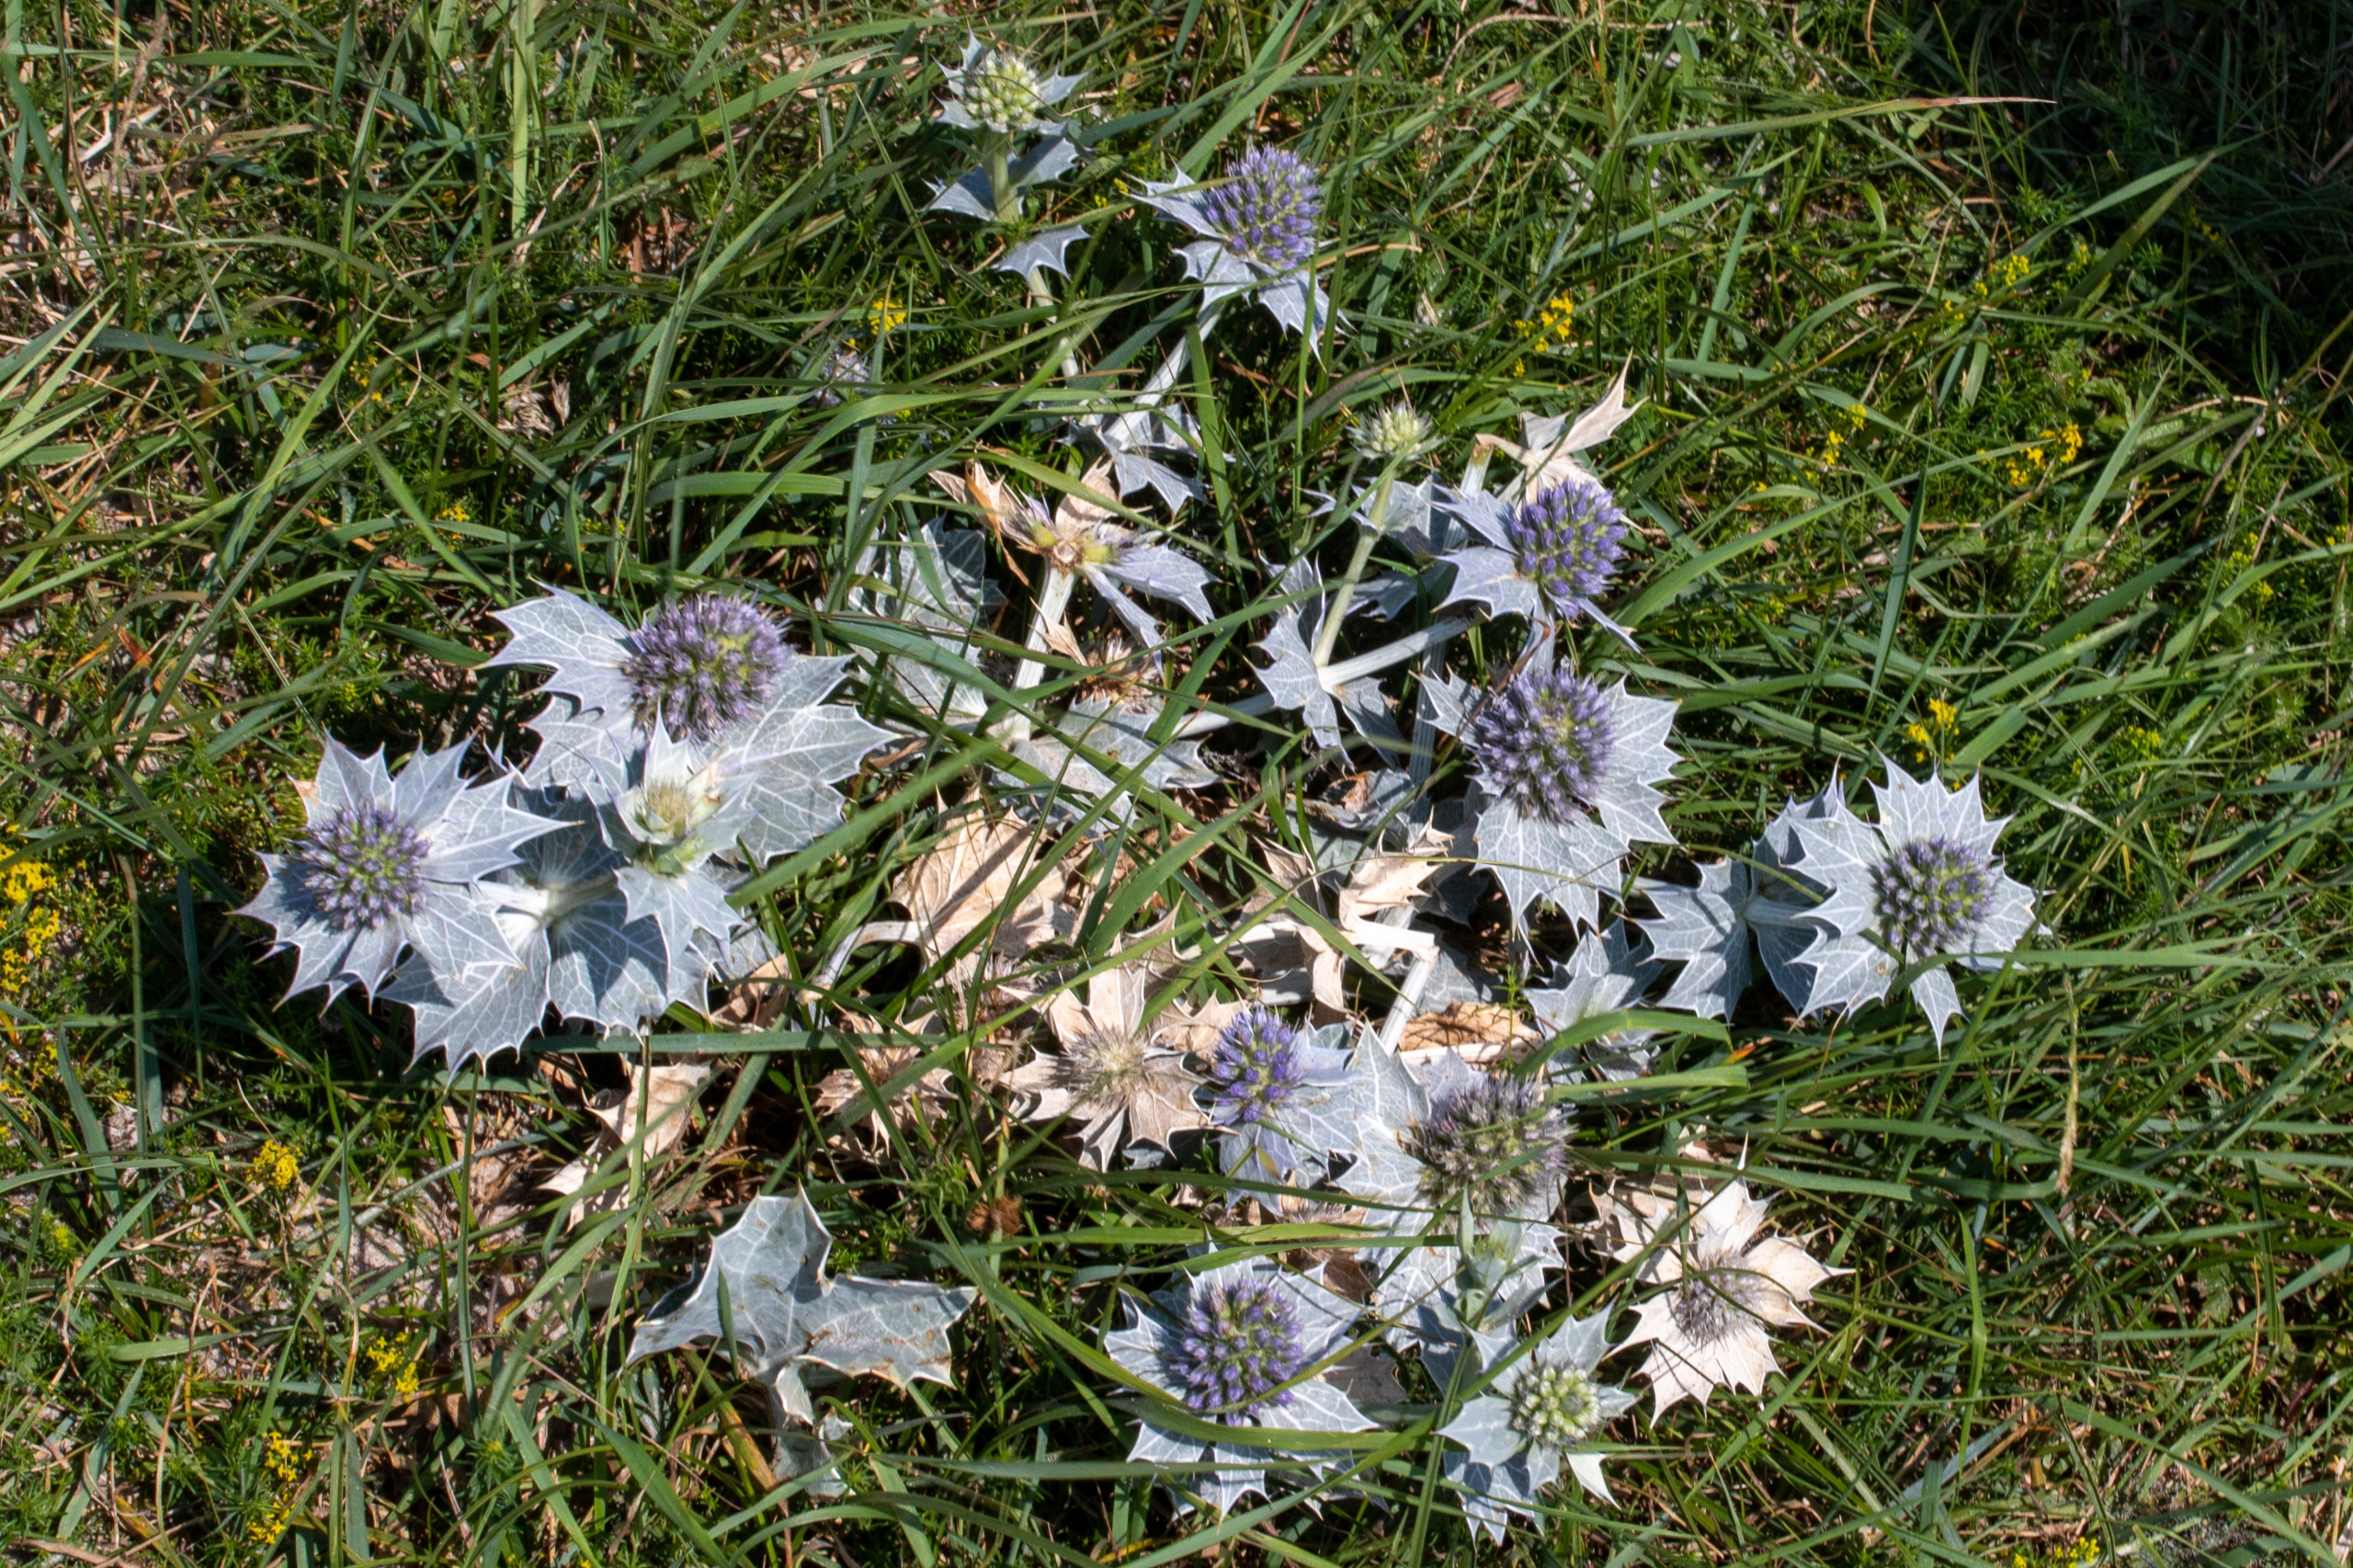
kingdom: Plantae
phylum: Tracheophyta
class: Magnoliopsida
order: Apiales
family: Apiaceae
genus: Eryngium
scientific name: Eryngium maritimum
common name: Strand-mandstro
